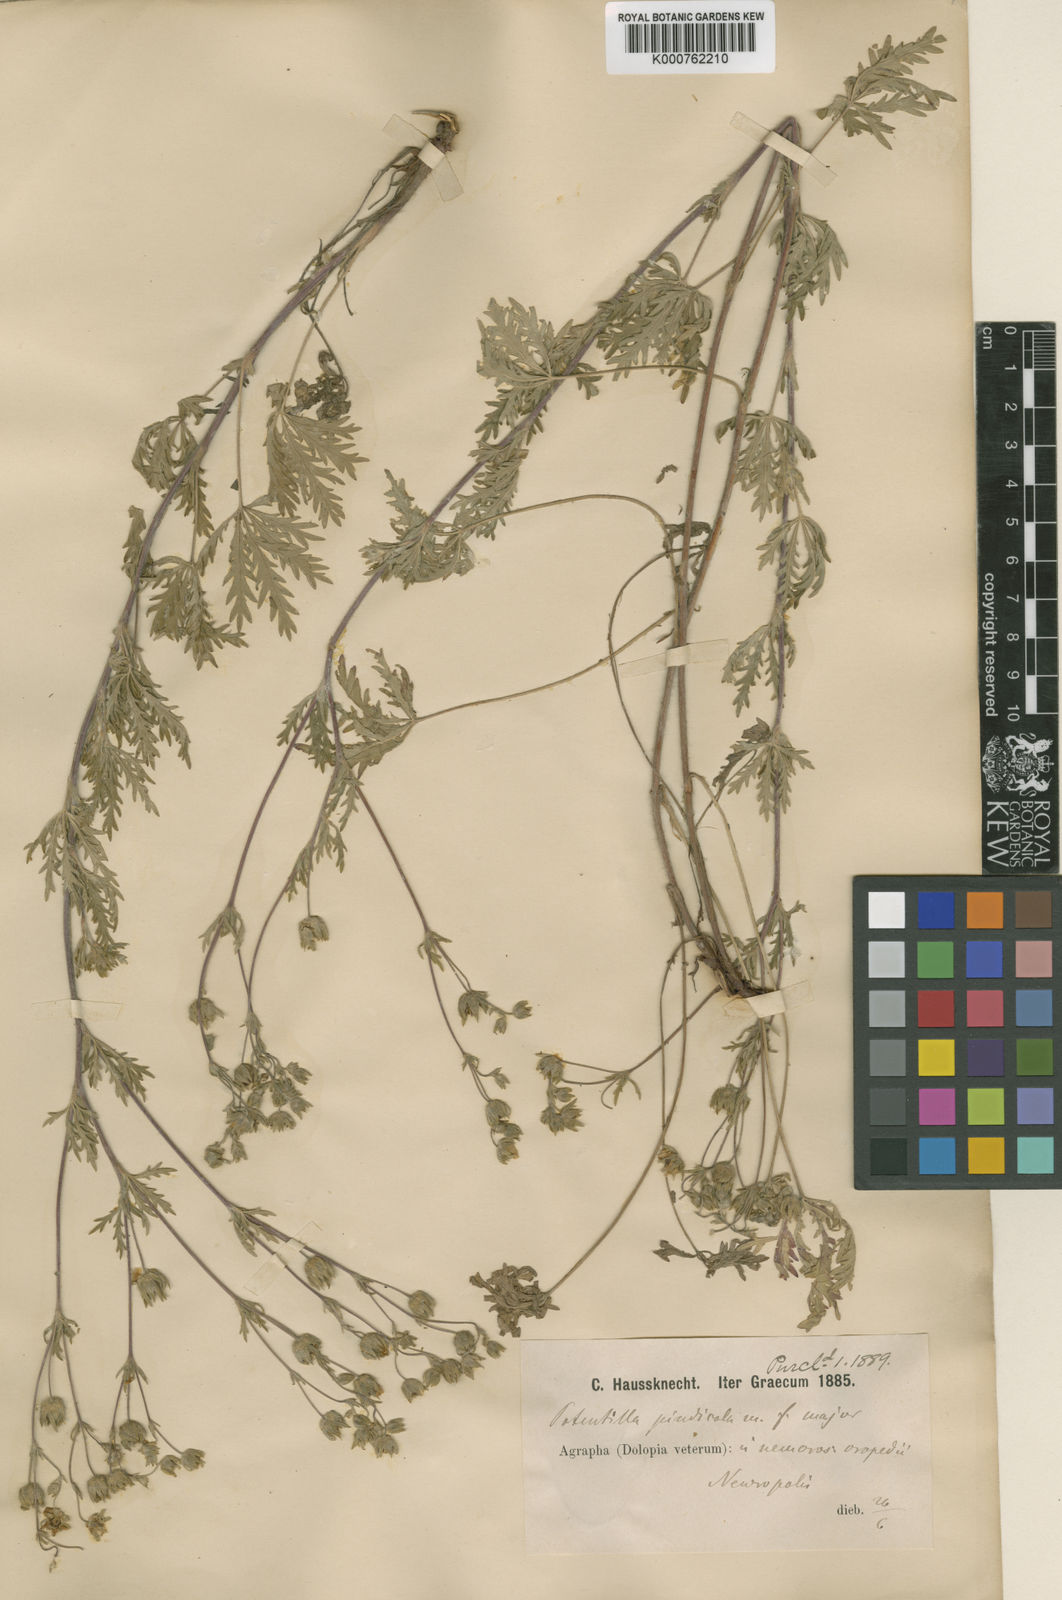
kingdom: Plantae
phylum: Tracheophyta
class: Magnoliopsida
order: Rosales
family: Rosaceae
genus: Potentilla
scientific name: Potentilla
